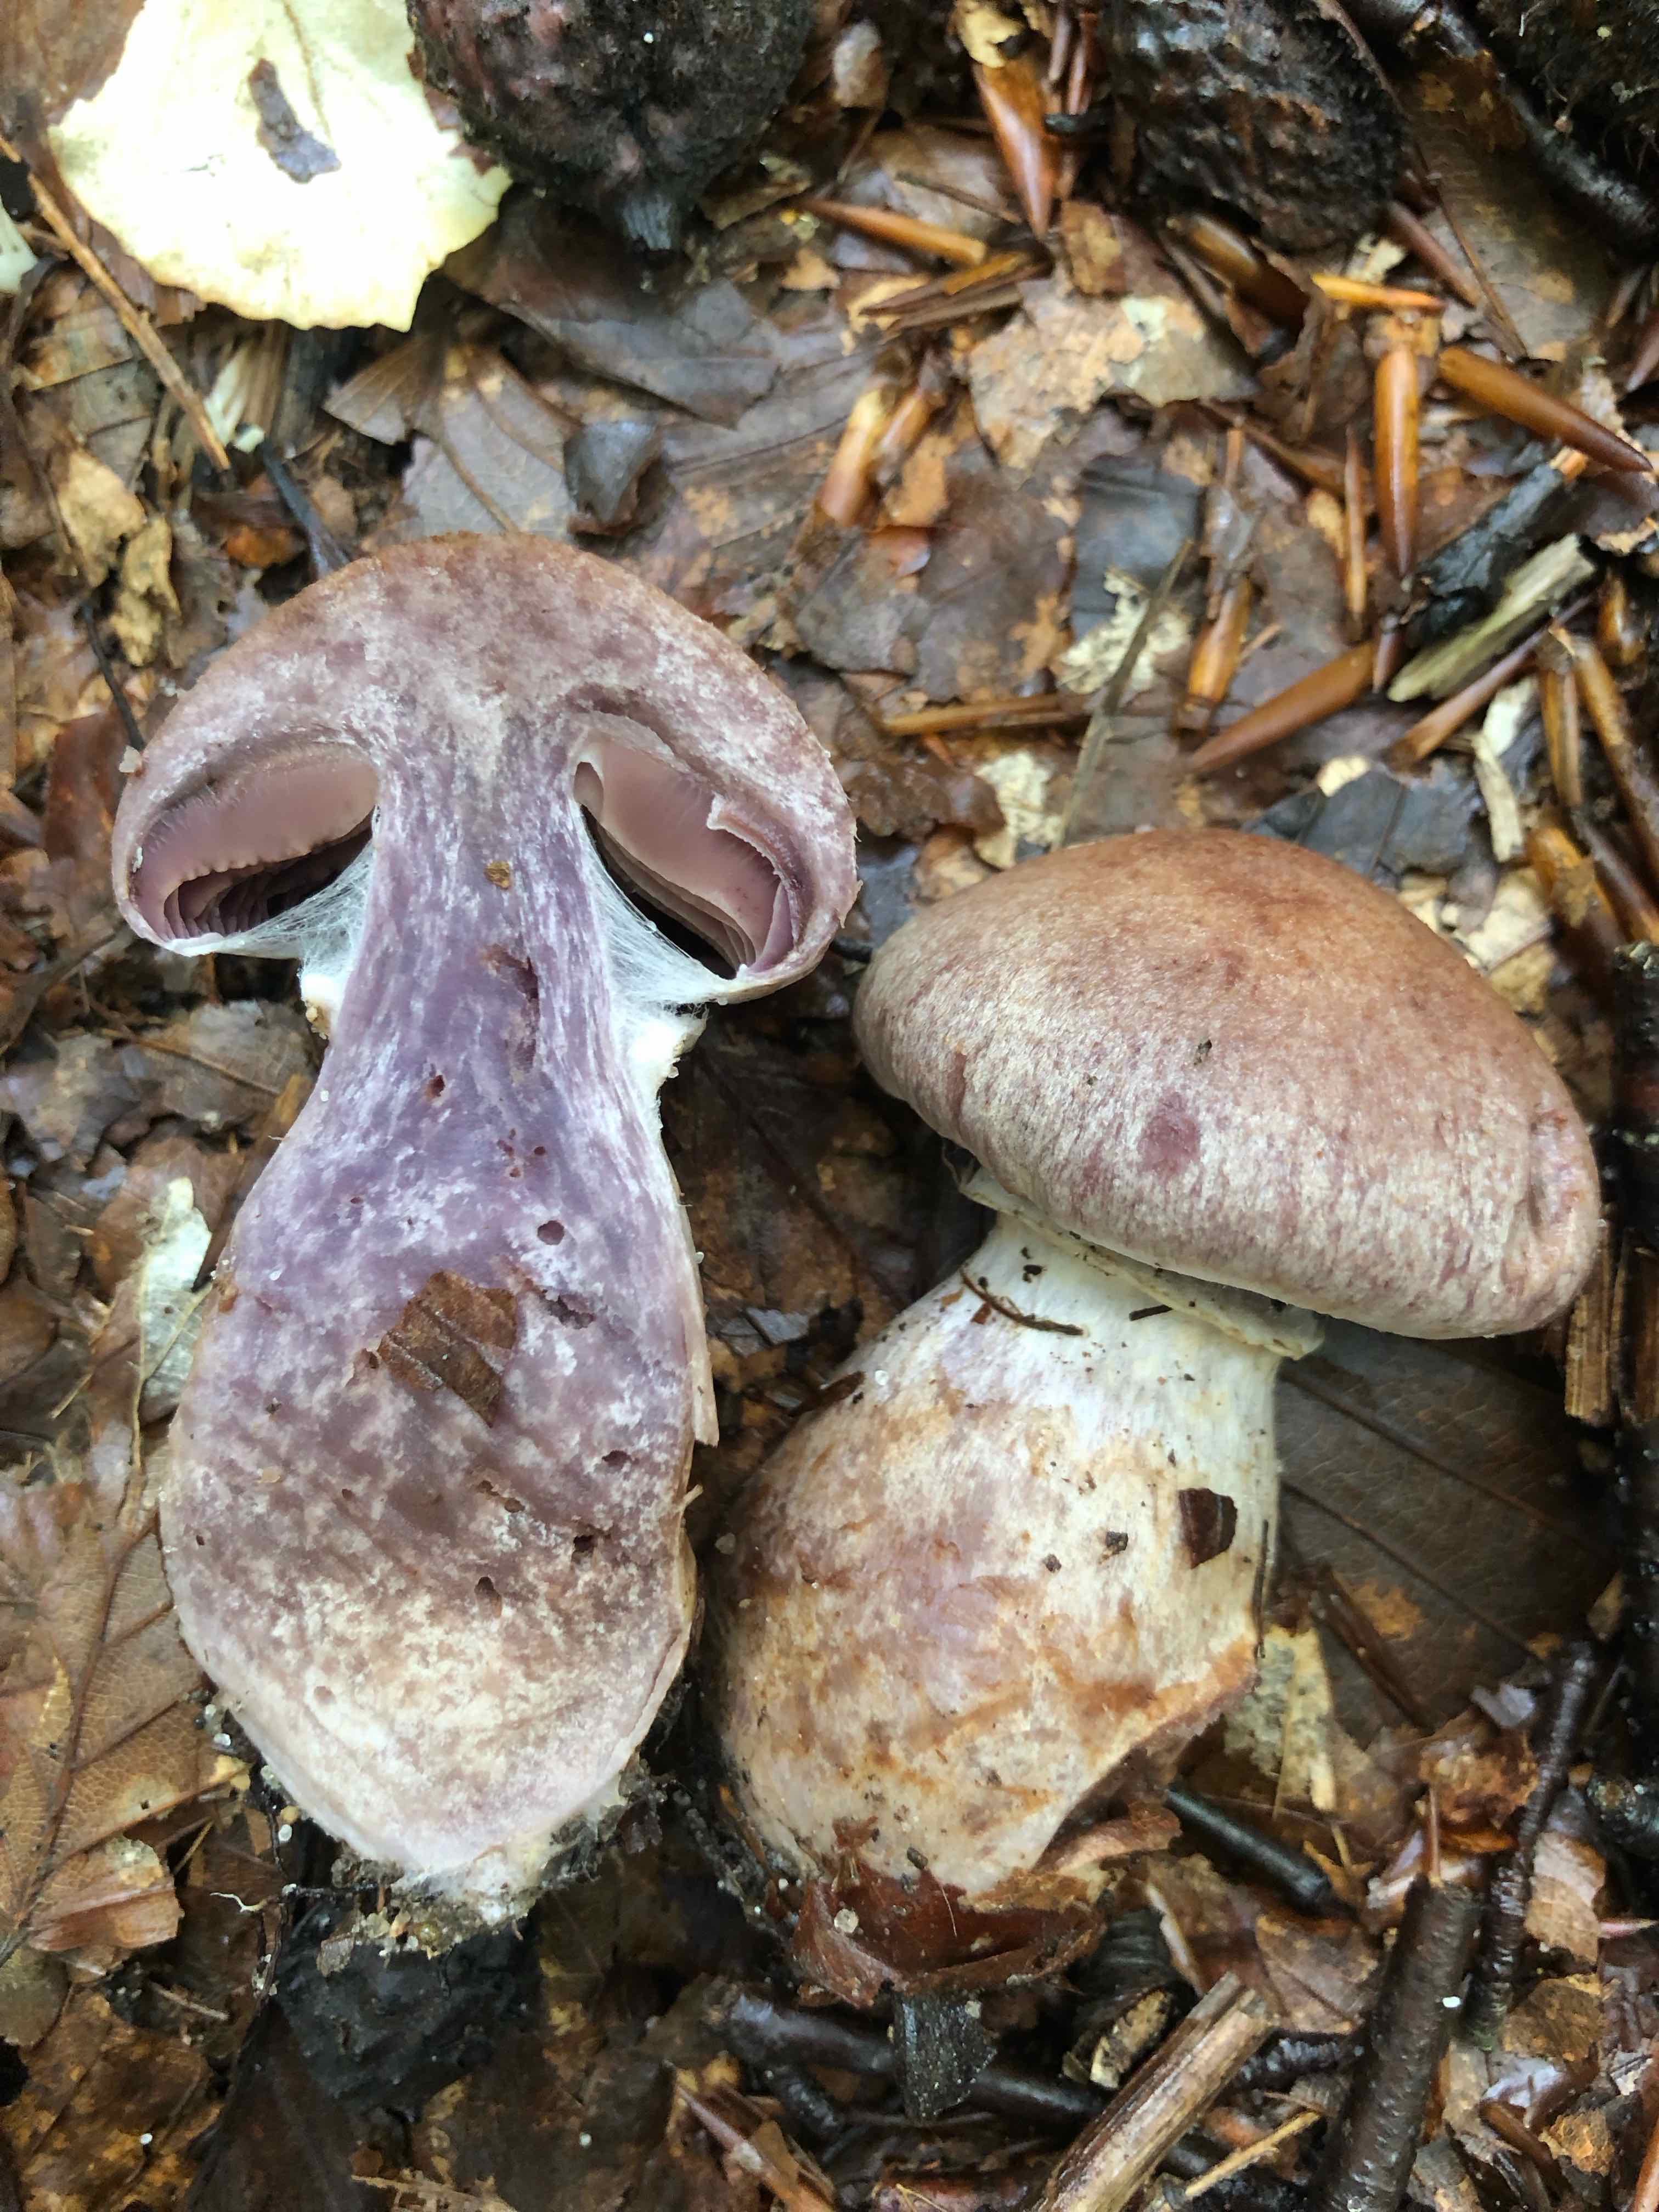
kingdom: Fungi
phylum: Basidiomycota
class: Agaricomycetes
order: Agaricales
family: Cortinariaceae
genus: Cortinarius
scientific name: Cortinarius torvus
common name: champignonagtig slørhat
